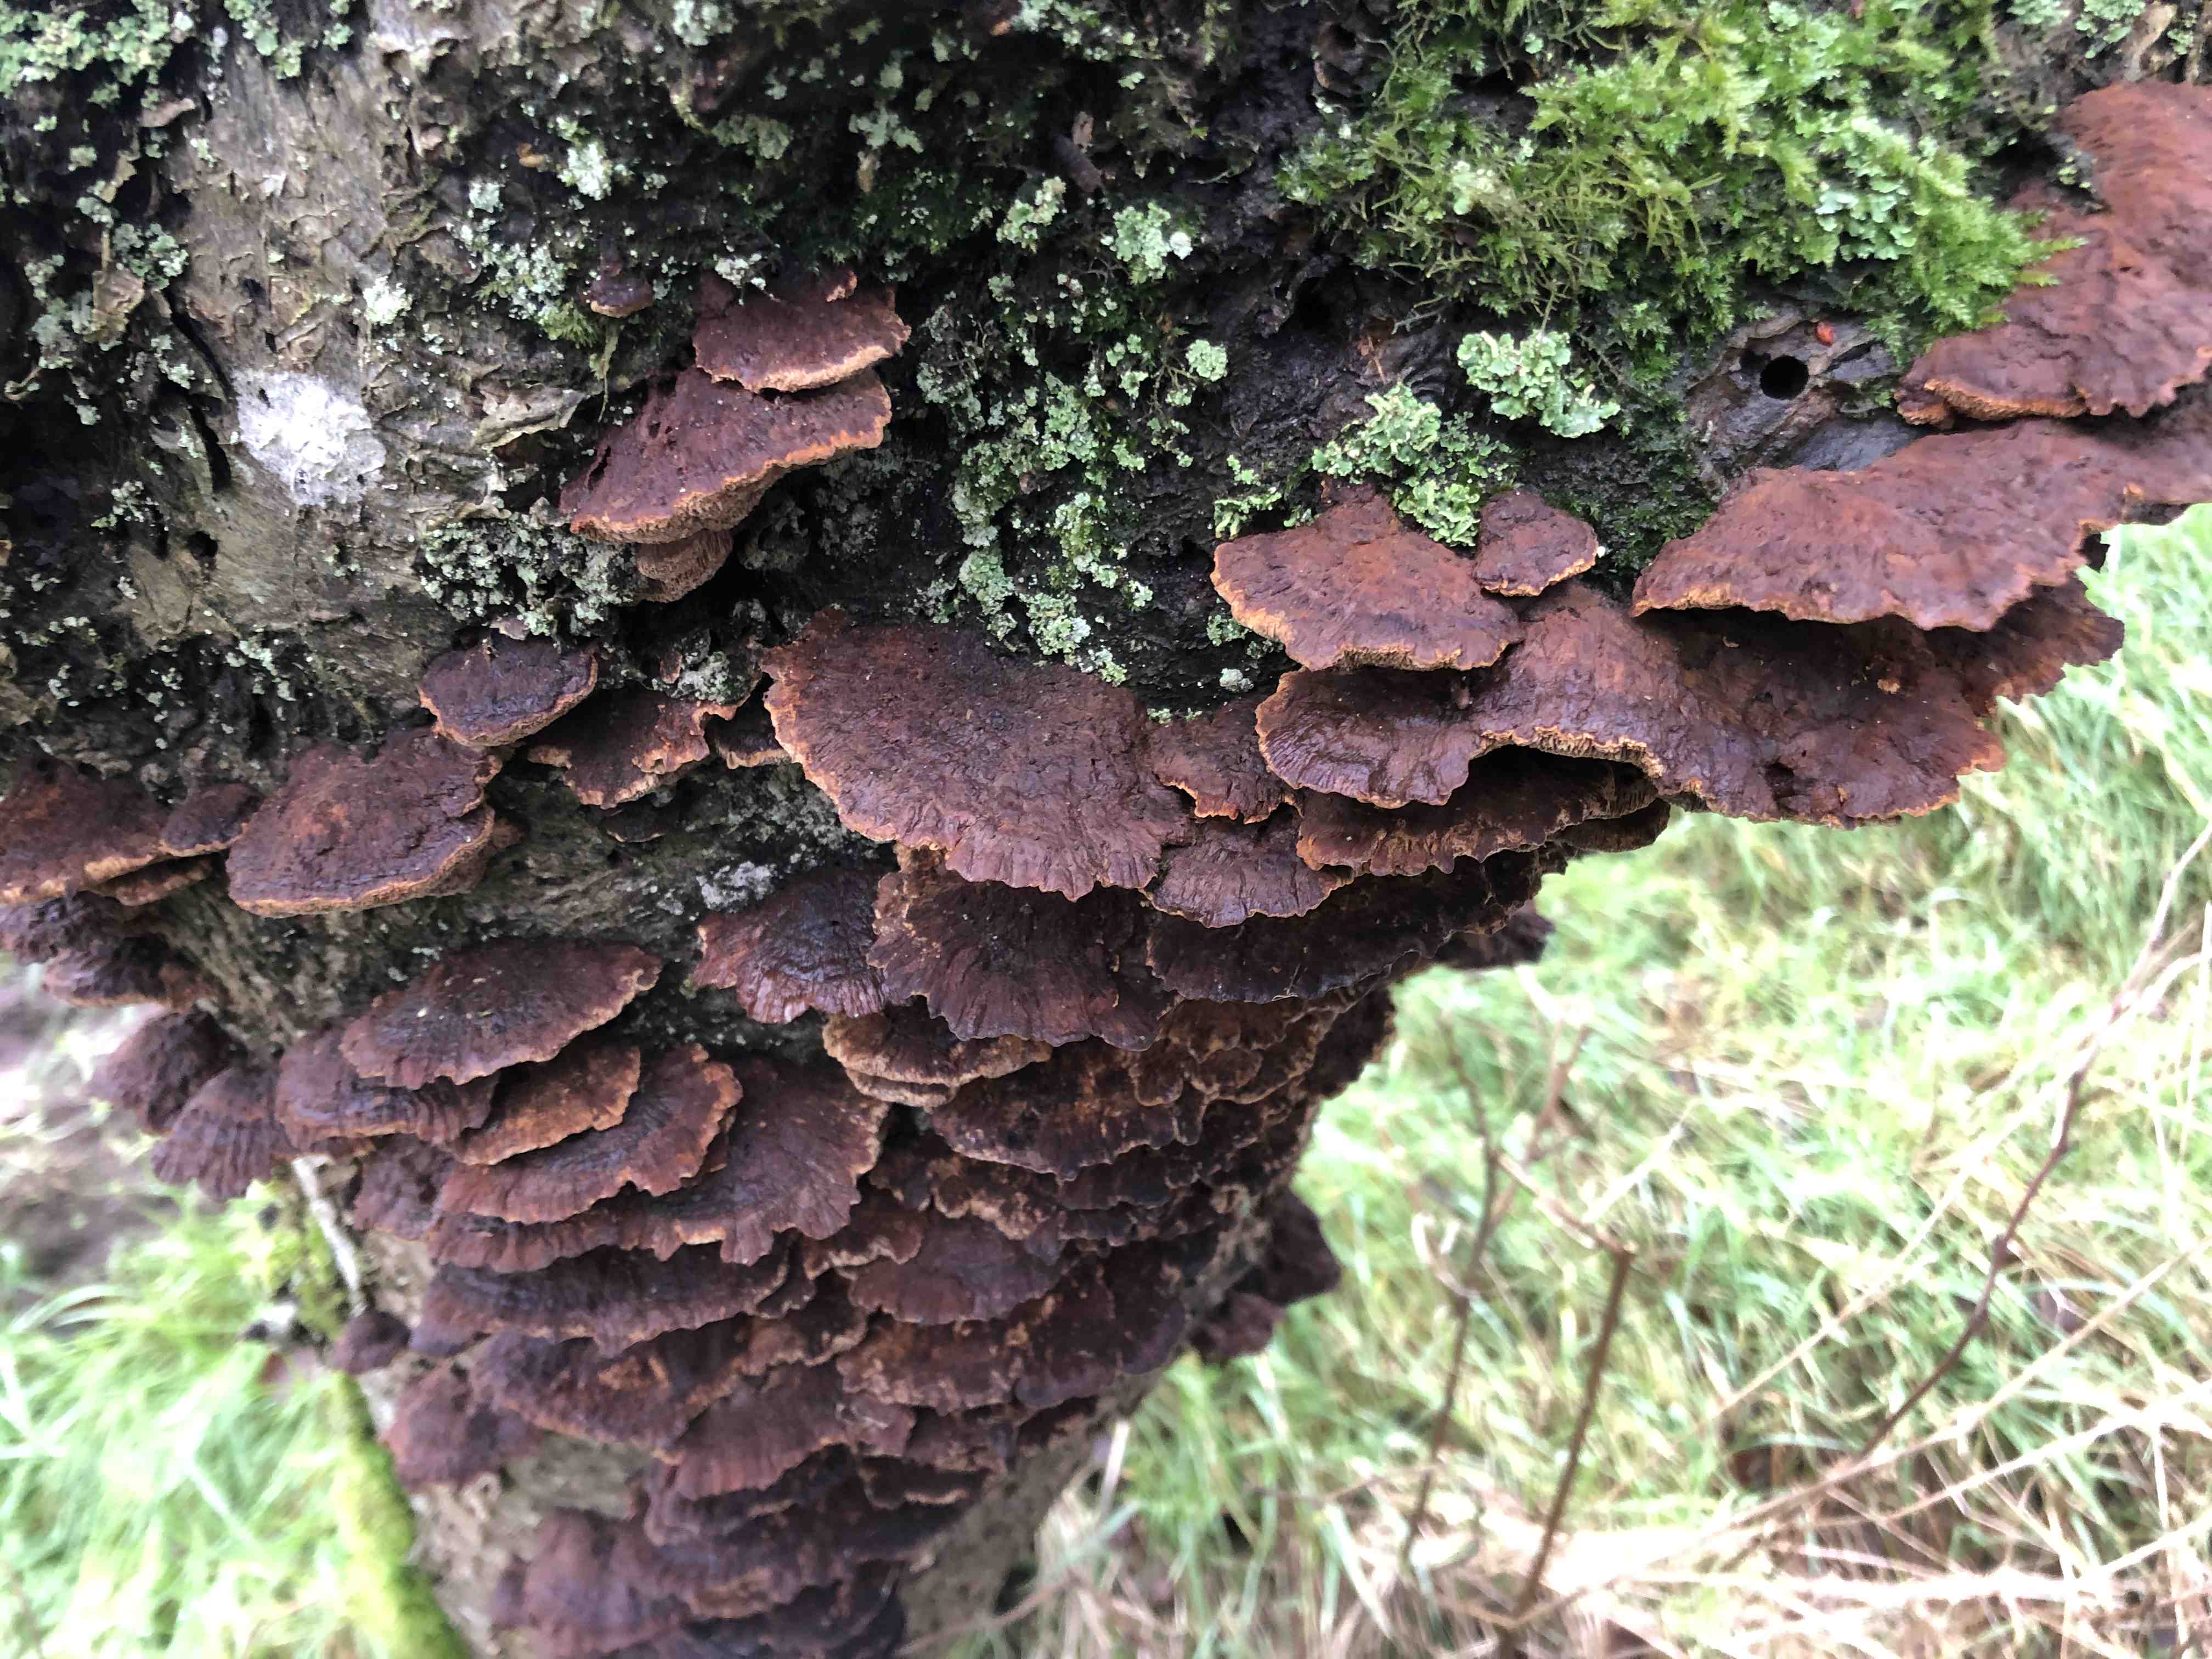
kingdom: Fungi
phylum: Basidiomycota
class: Agaricomycetes
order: Hymenochaetales
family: Hymenochaetaceae
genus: Xanthoporia
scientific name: Xanthoporia radiata
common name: elle-spejlporesvamp
